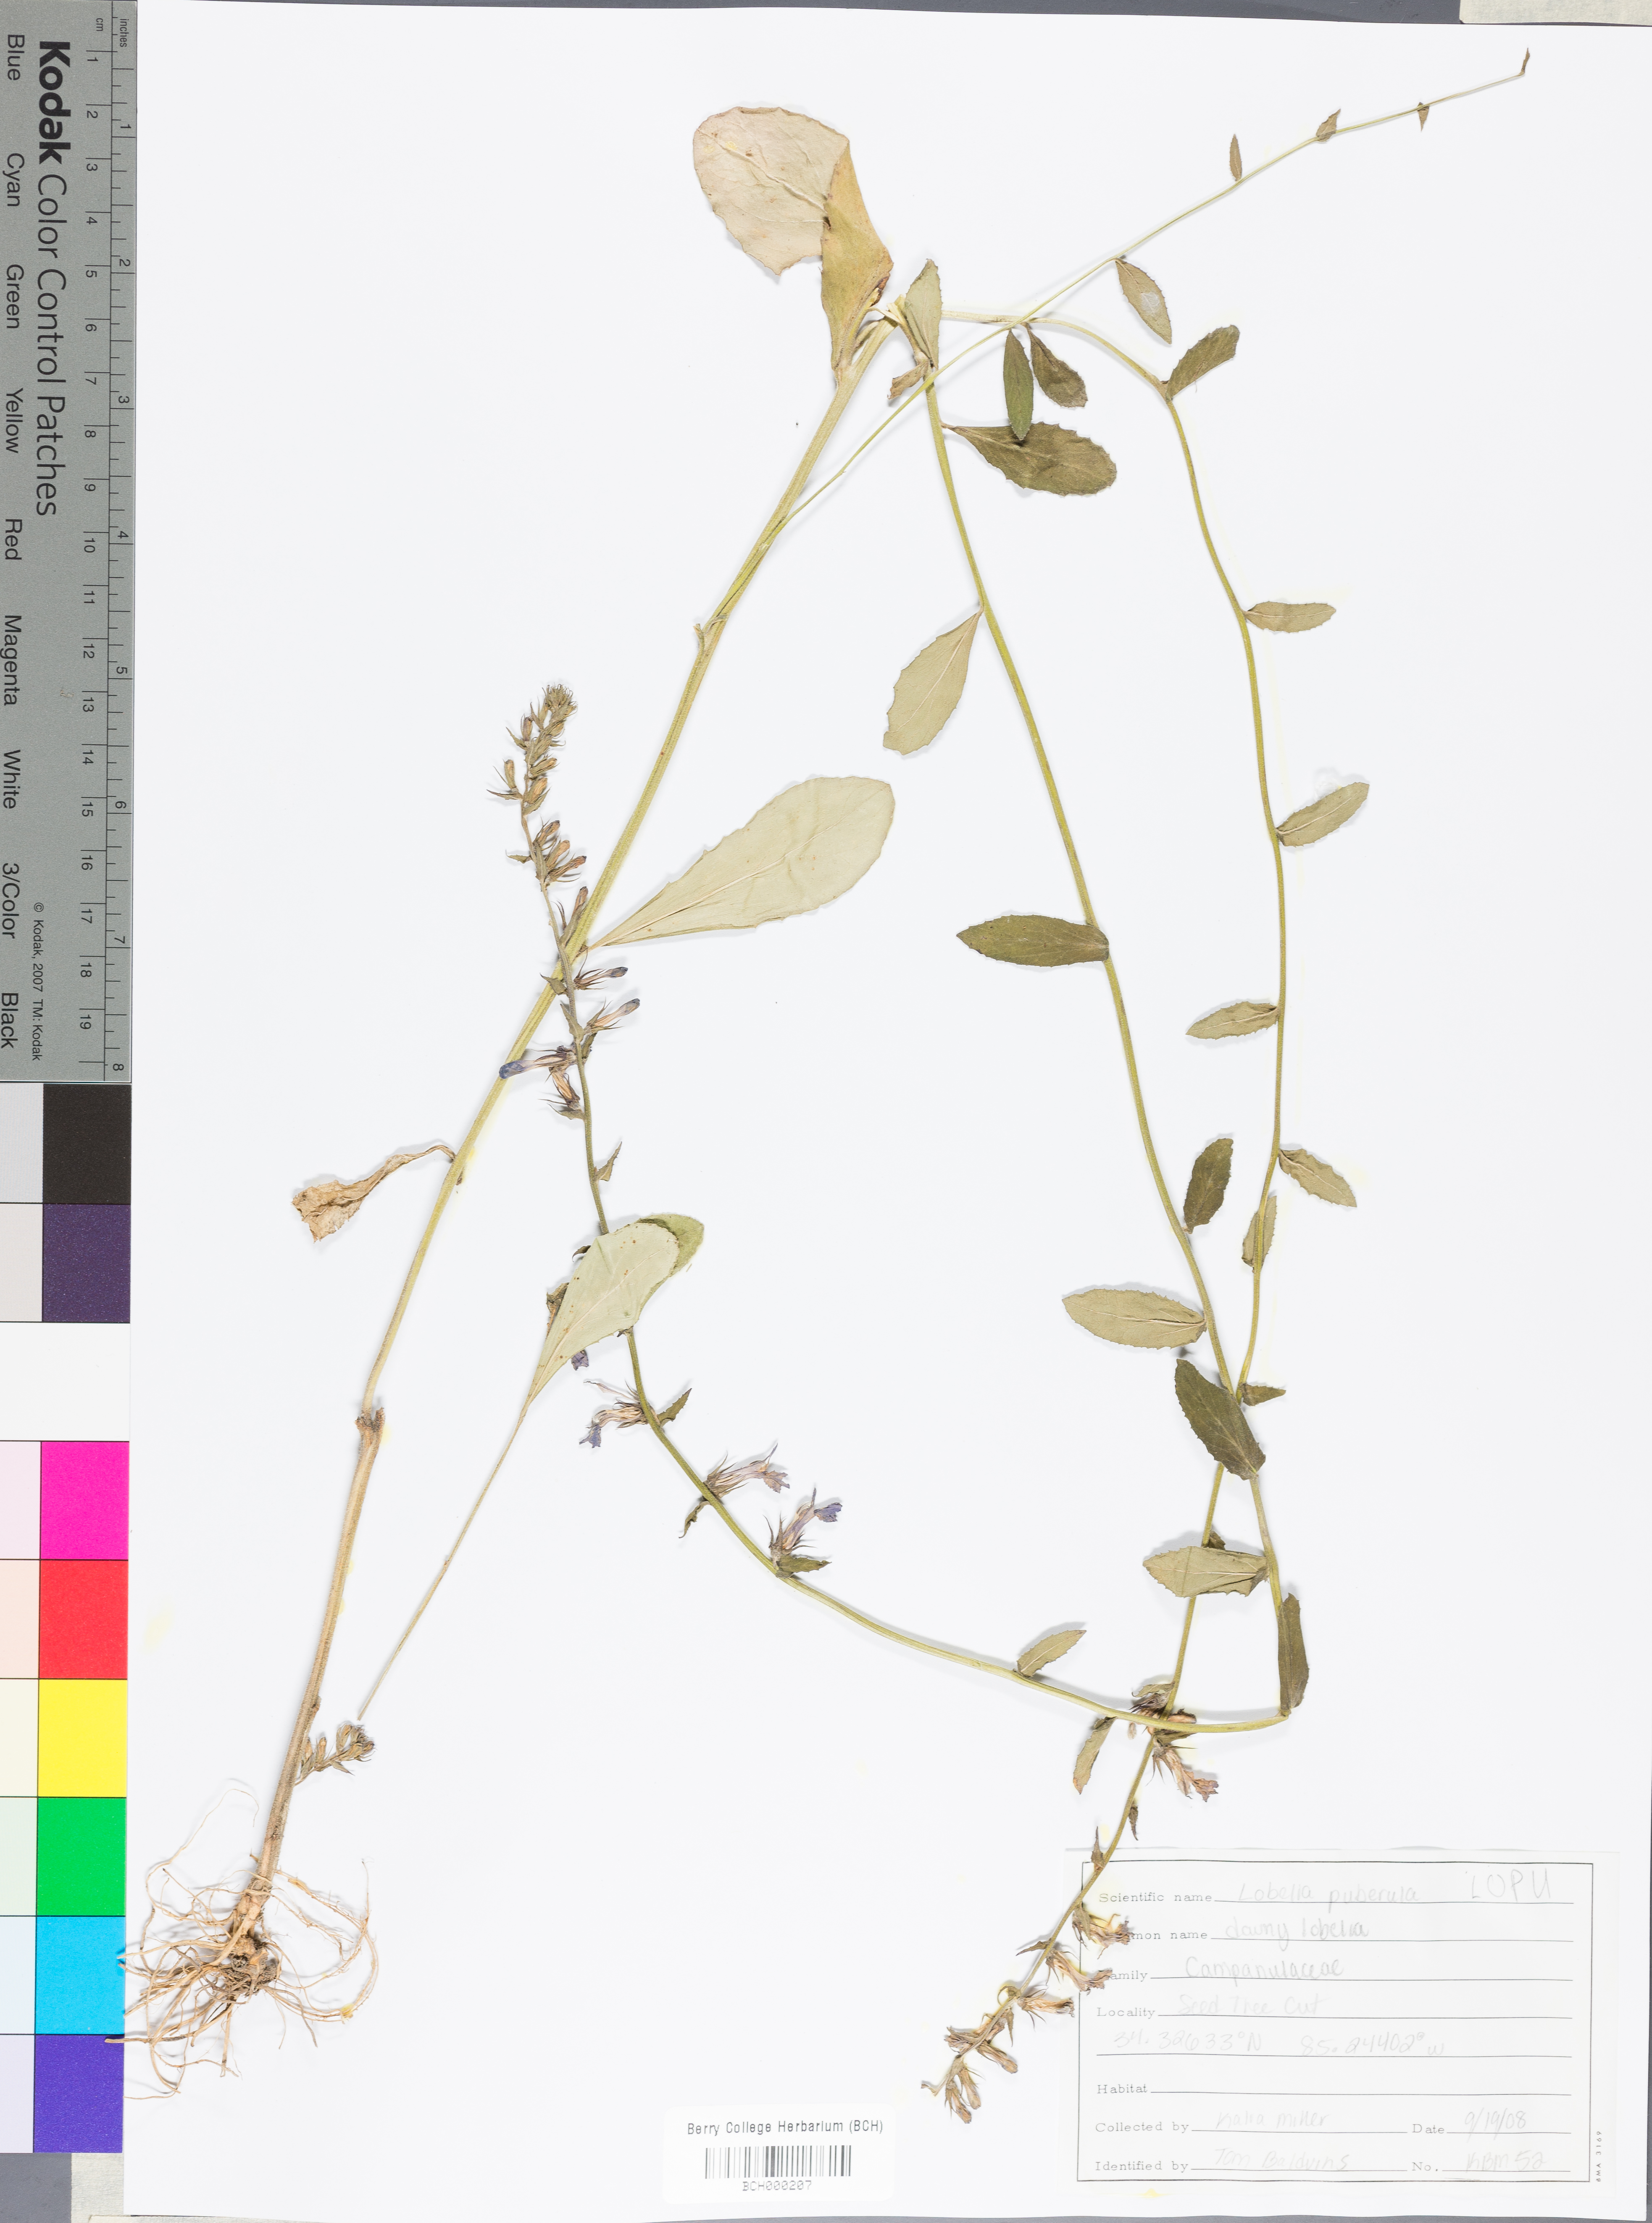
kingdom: Plantae
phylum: Tracheophyta
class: Magnoliopsida
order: Asterales
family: Campanulaceae
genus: Lobelia
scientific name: Lobelia puberula
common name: Purple dewdrop
